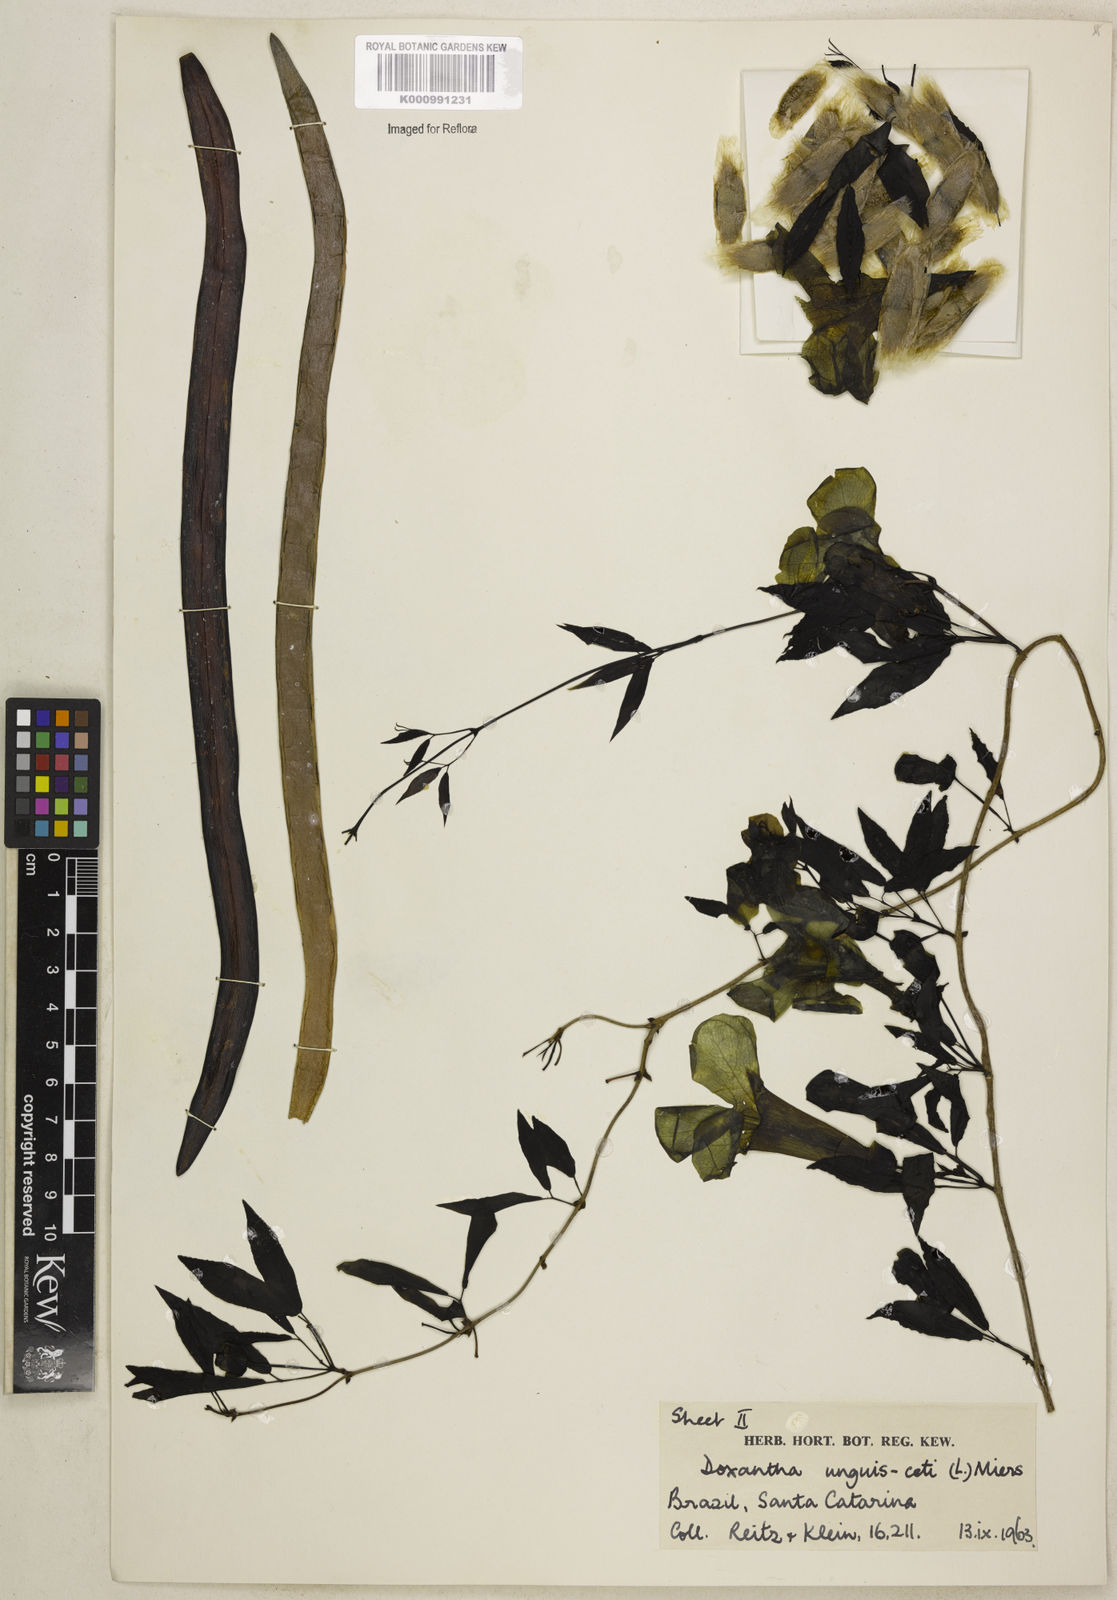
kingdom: Plantae
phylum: Tracheophyta
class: Magnoliopsida
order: Lamiales
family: Bignoniaceae
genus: Dolichandra
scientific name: Dolichandra unguis-cati
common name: Catclaw vine
